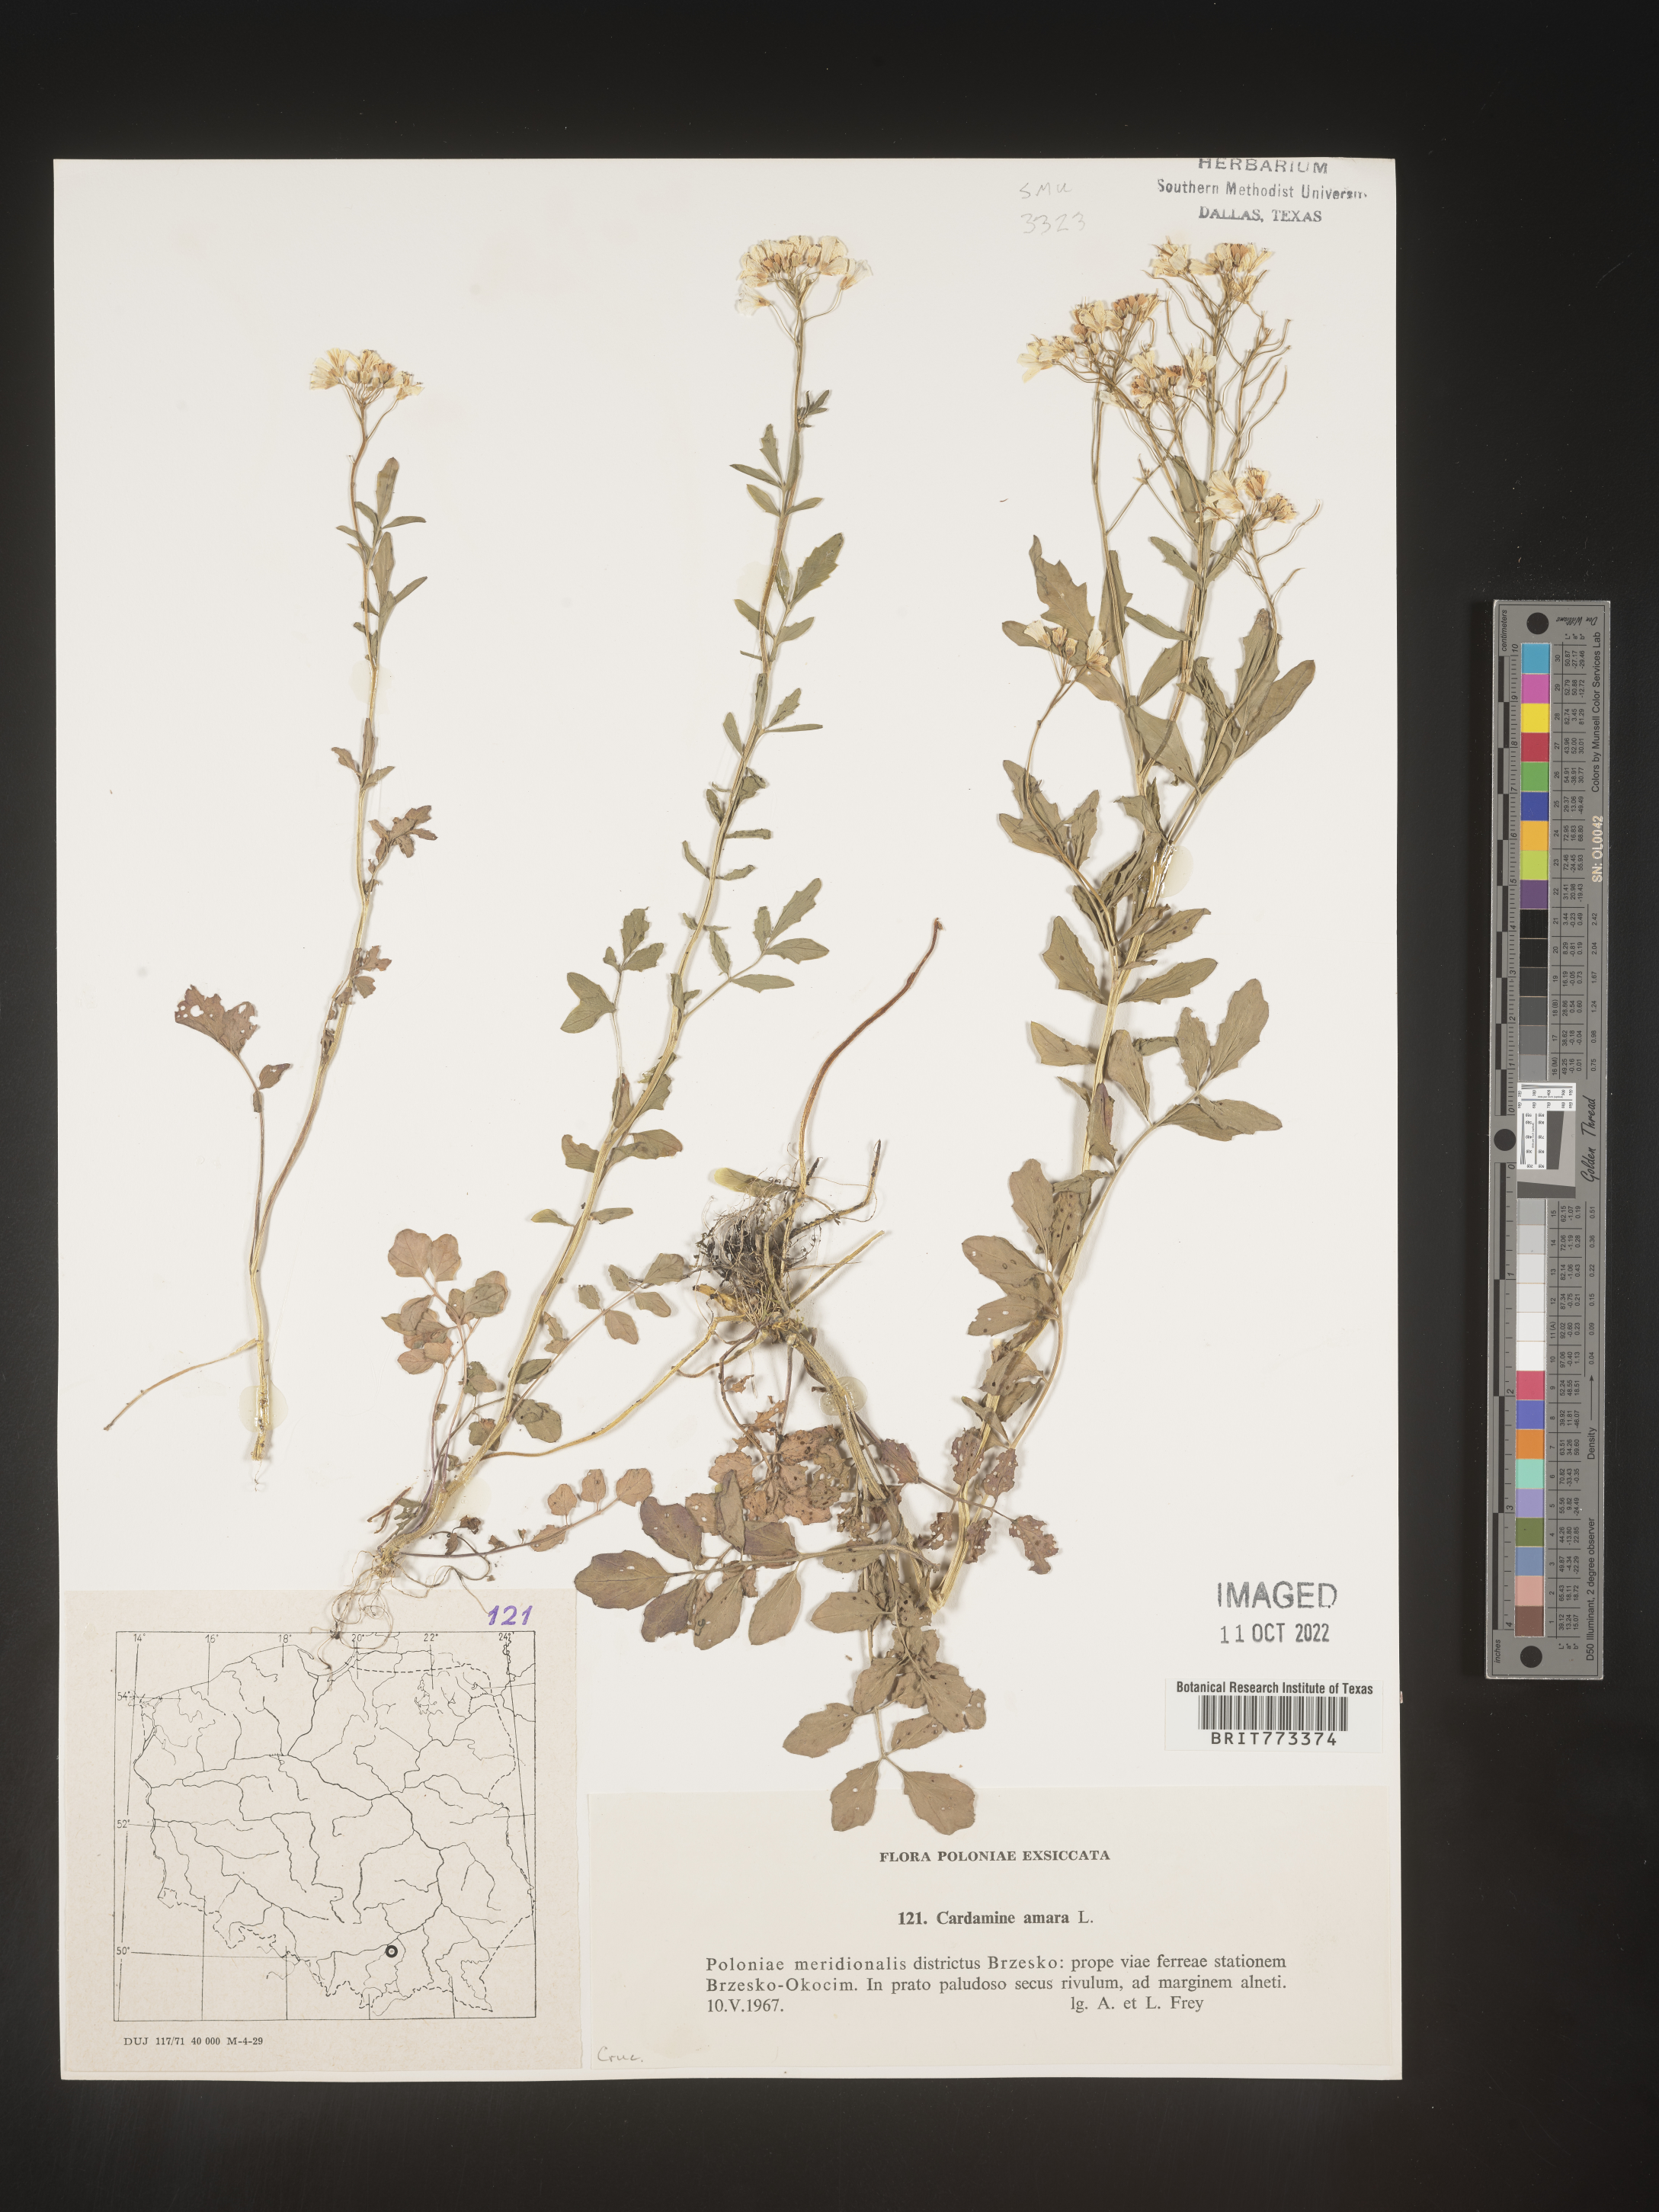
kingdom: Plantae
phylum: Tracheophyta
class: Magnoliopsida
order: Brassicales
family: Brassicaceae
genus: Cardamine
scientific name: Cardamine
